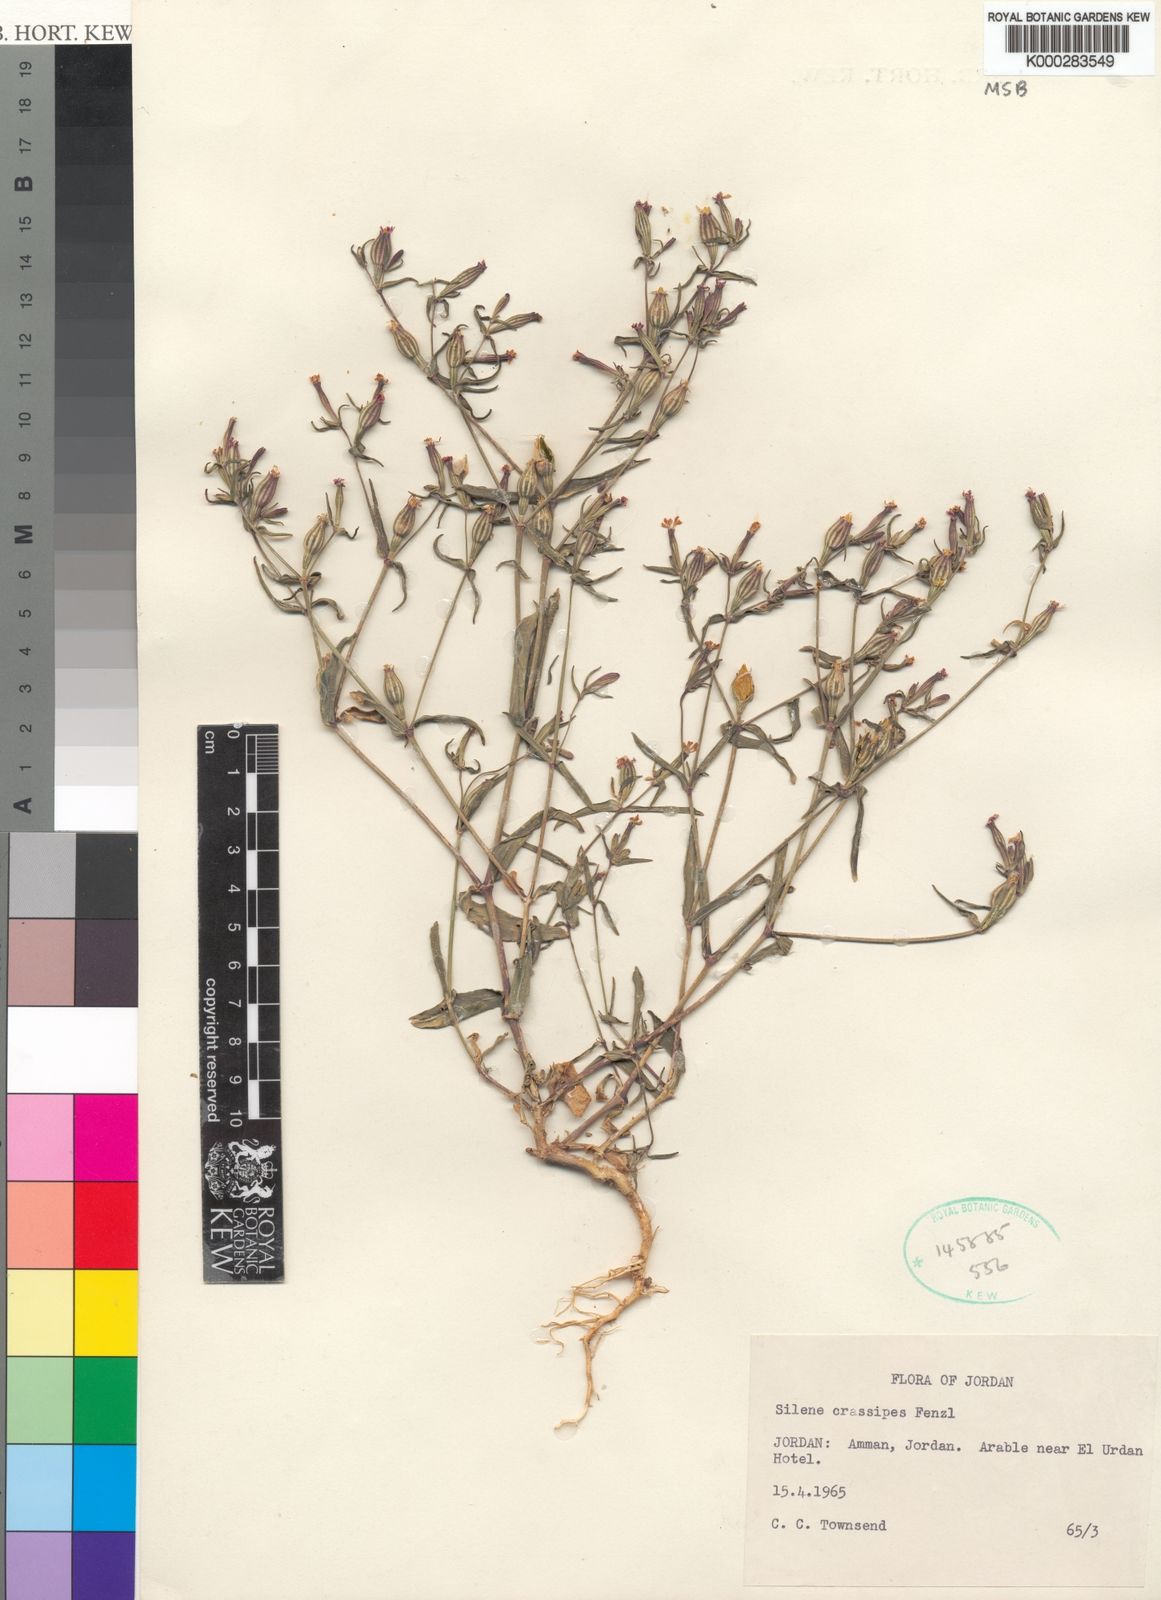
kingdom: Plantae
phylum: Tracheophyta
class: Magnoliopsida
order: Caryophyllales
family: Caryophyllaceae
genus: Silene
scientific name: Silene crassipes
